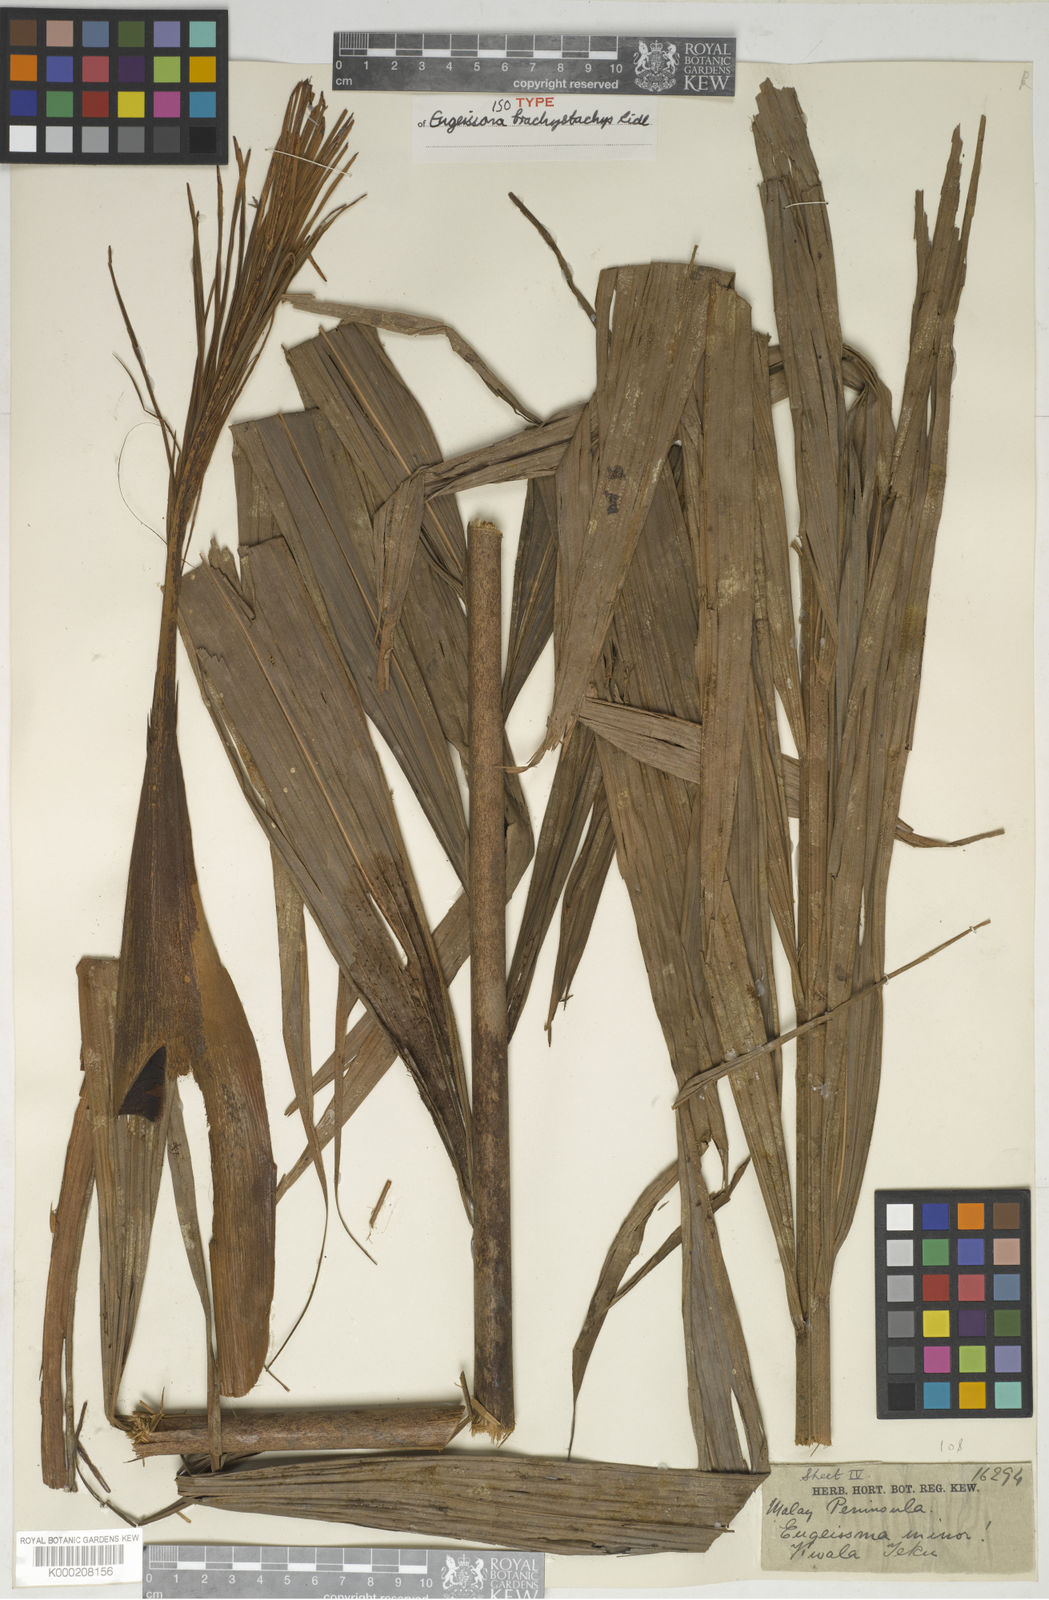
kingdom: Plantae
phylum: Tracheophyta
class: Liliopsida
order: Arecales
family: Arecaceae
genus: Eugeissona
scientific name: Eugeissona brachystachys
